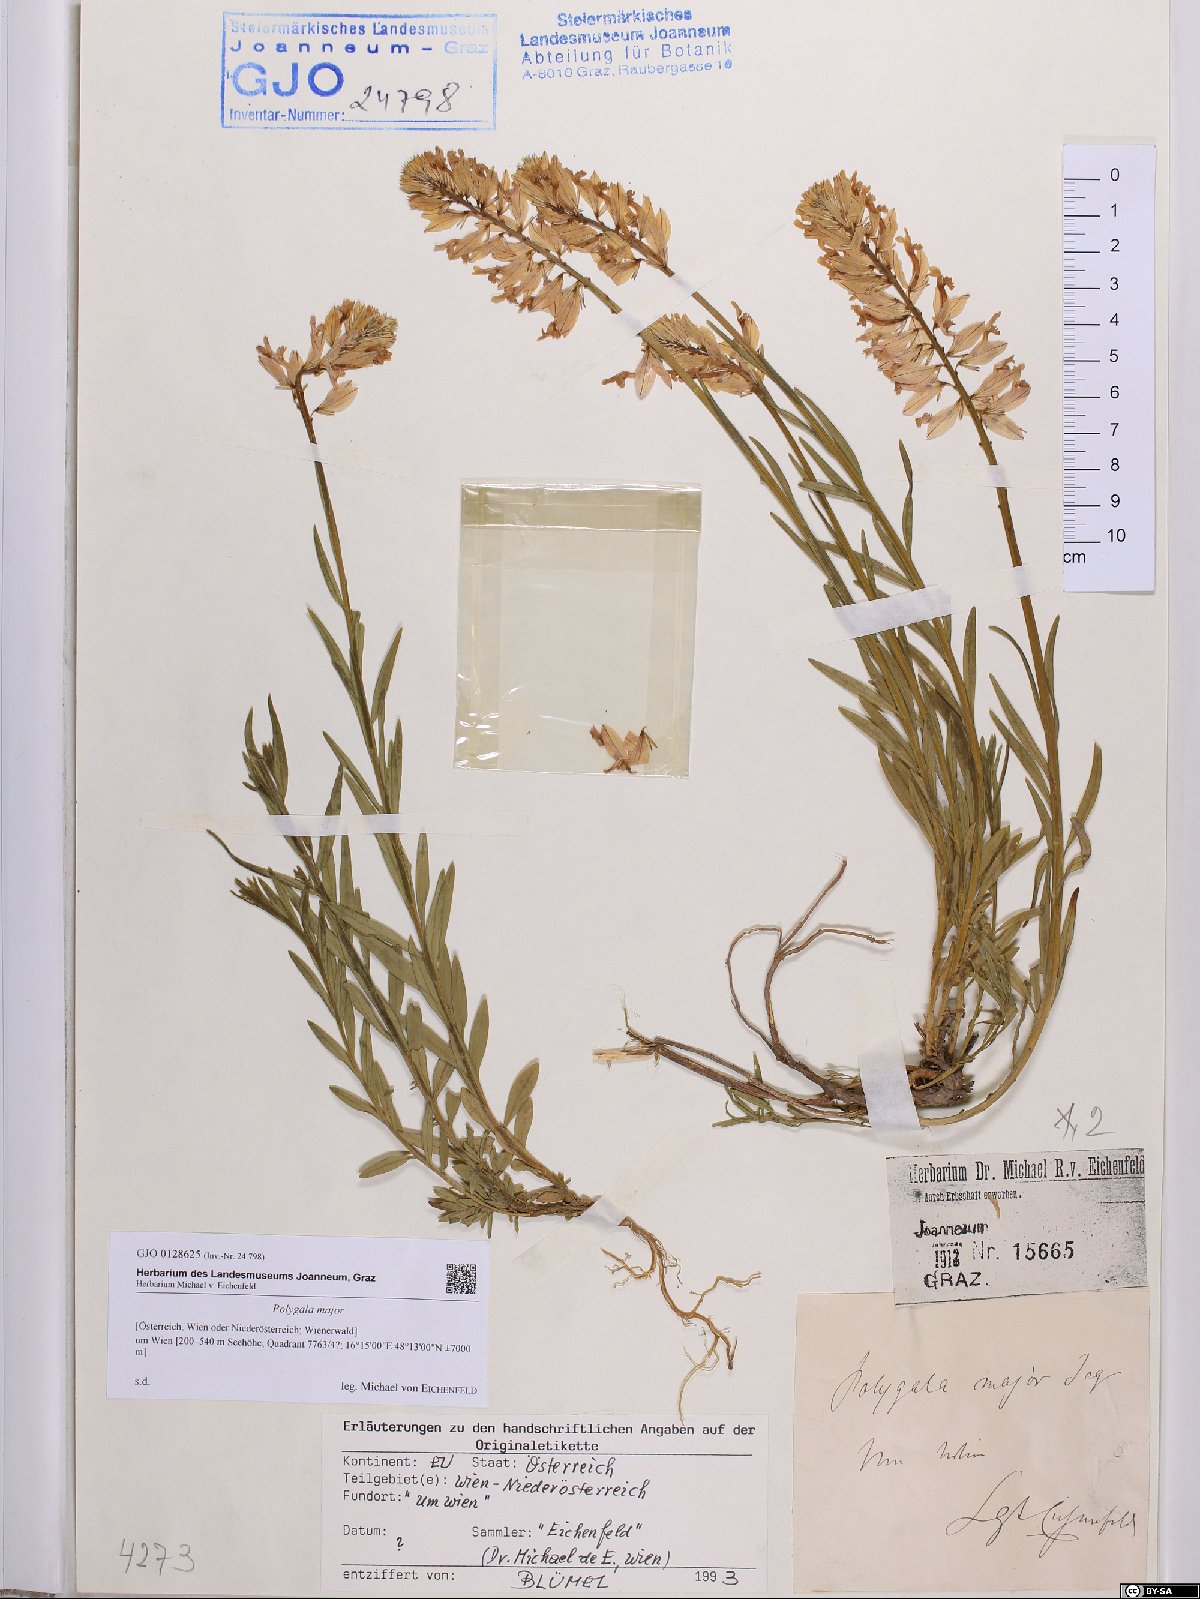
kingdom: Plantae
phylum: Tracheophyta
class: Magnoliopsida
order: Fabales
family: Polygalaceae
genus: Polygala
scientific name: Polygala major
